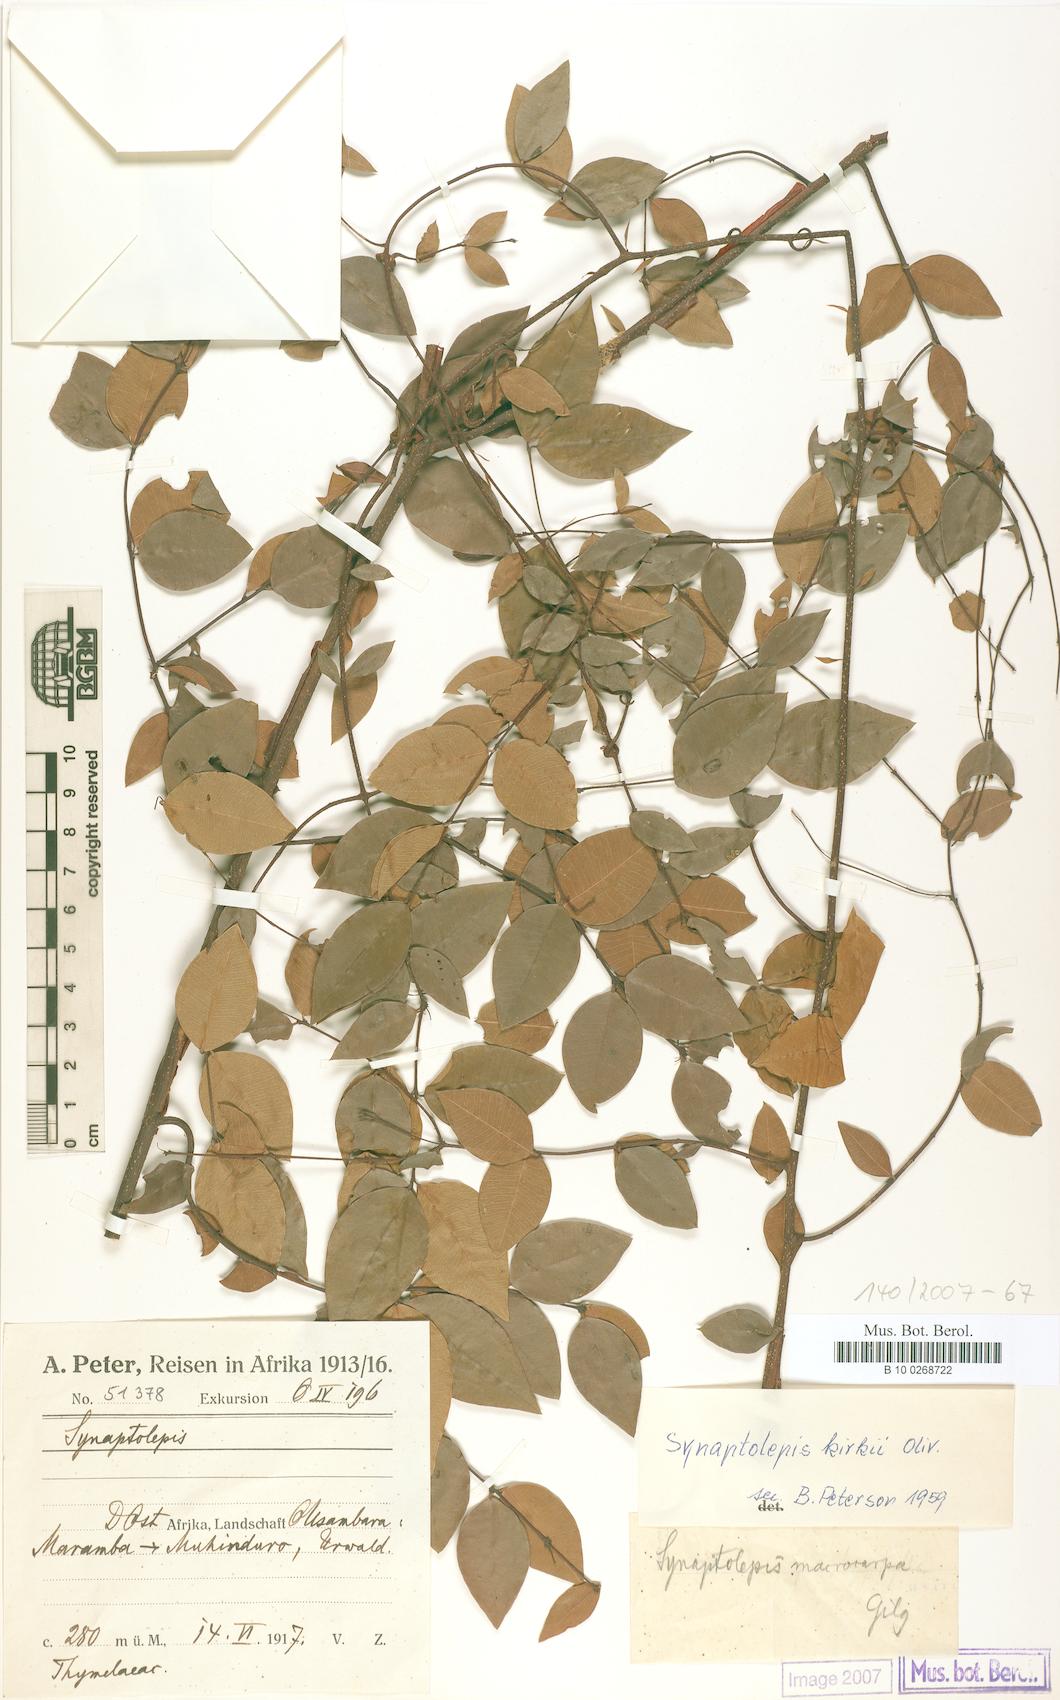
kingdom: Plantae
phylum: Tracheophyta
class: Magnoliopsida
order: Malvales
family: Thymelaeaceae
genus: Synaptolepis
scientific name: Synaptolepis kirkii
